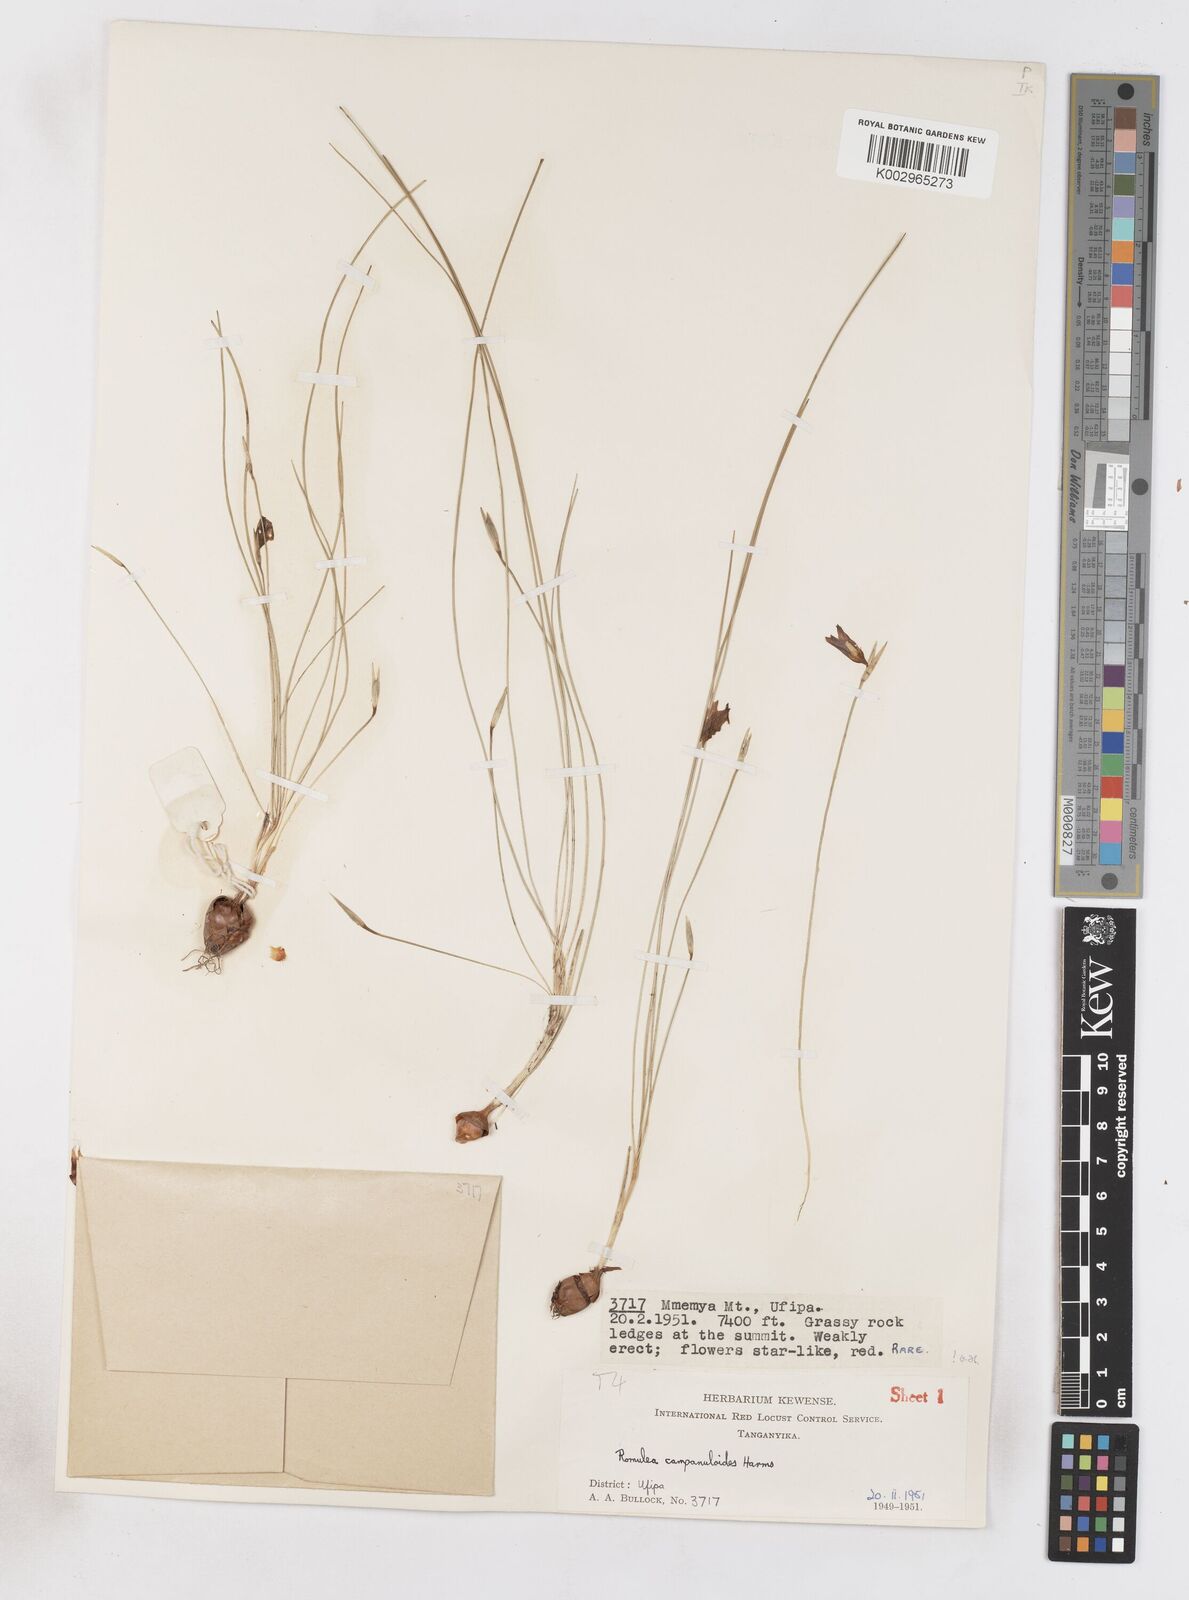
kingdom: Plantae
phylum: Tracheophyta
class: Liliopsida
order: Asparagales
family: Iridaceae
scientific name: Iridaceae
